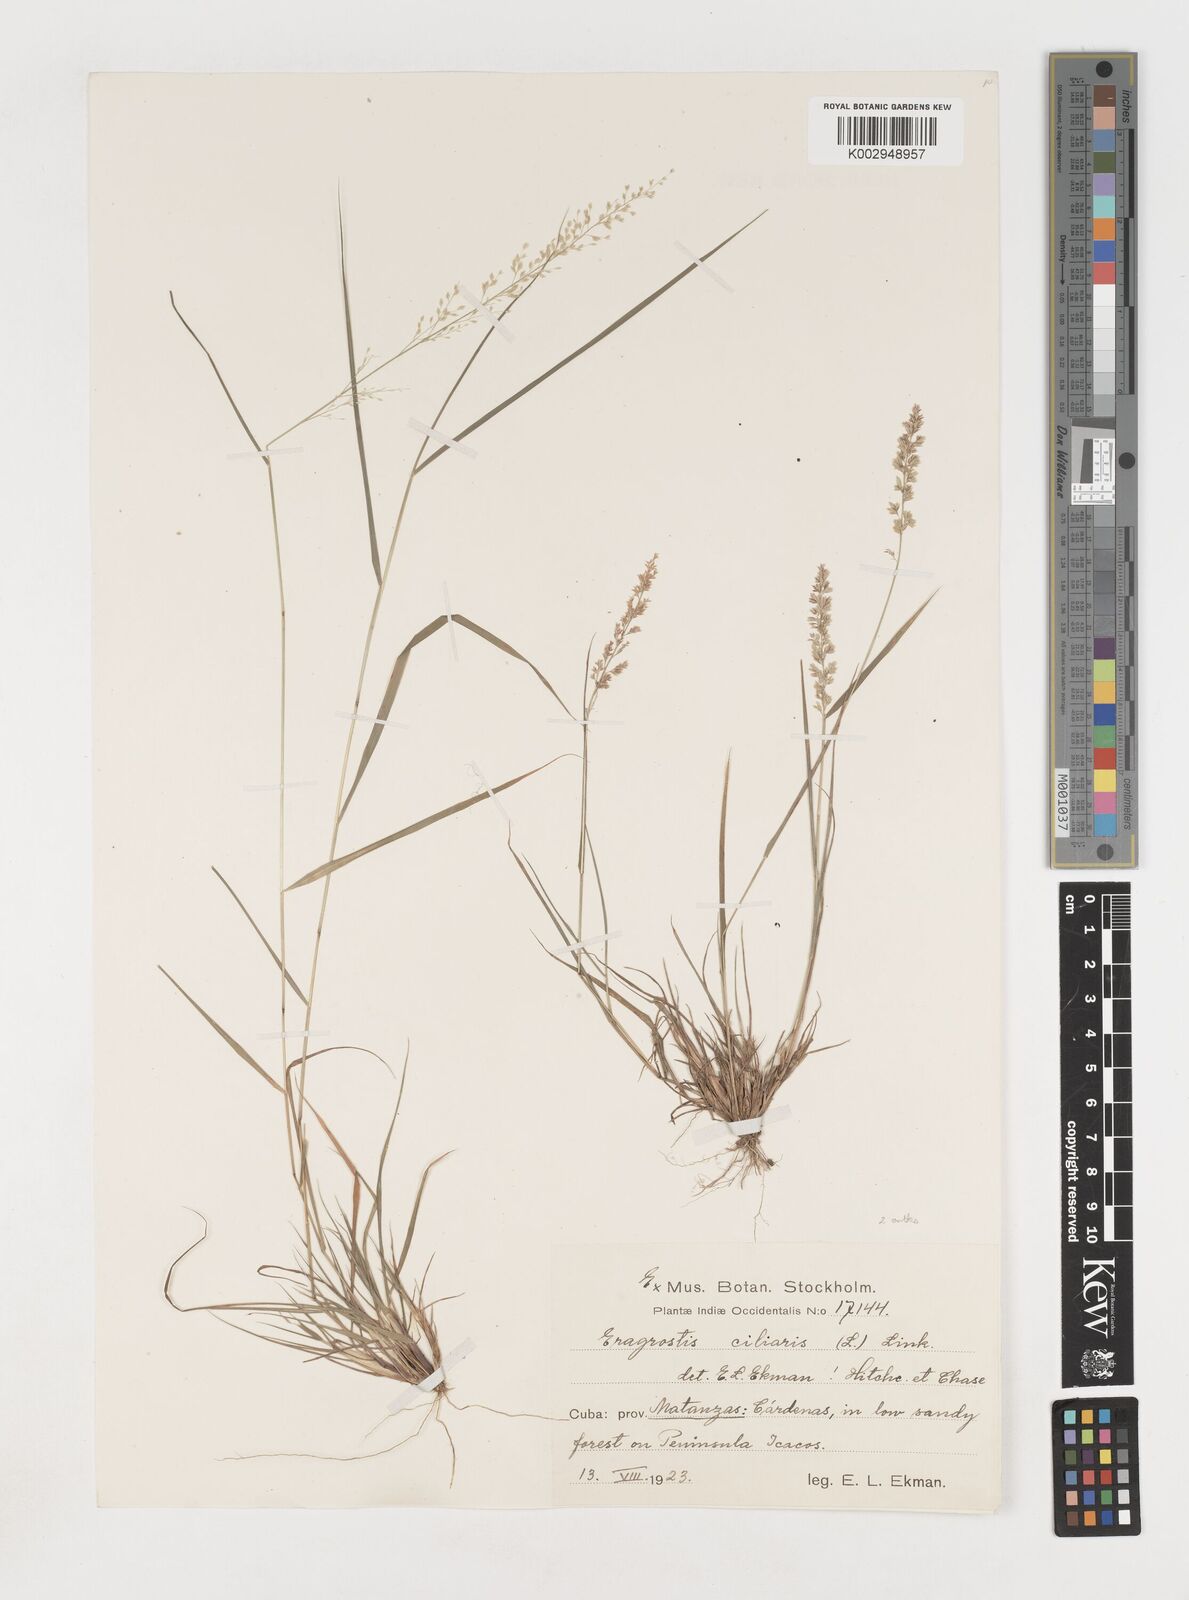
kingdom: Plantae
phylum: Tracheophyta
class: Liliopsida
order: Poales
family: Poaceae
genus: Eragrostis
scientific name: Eragrostis ciliaris
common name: Gophertail lovegrass
